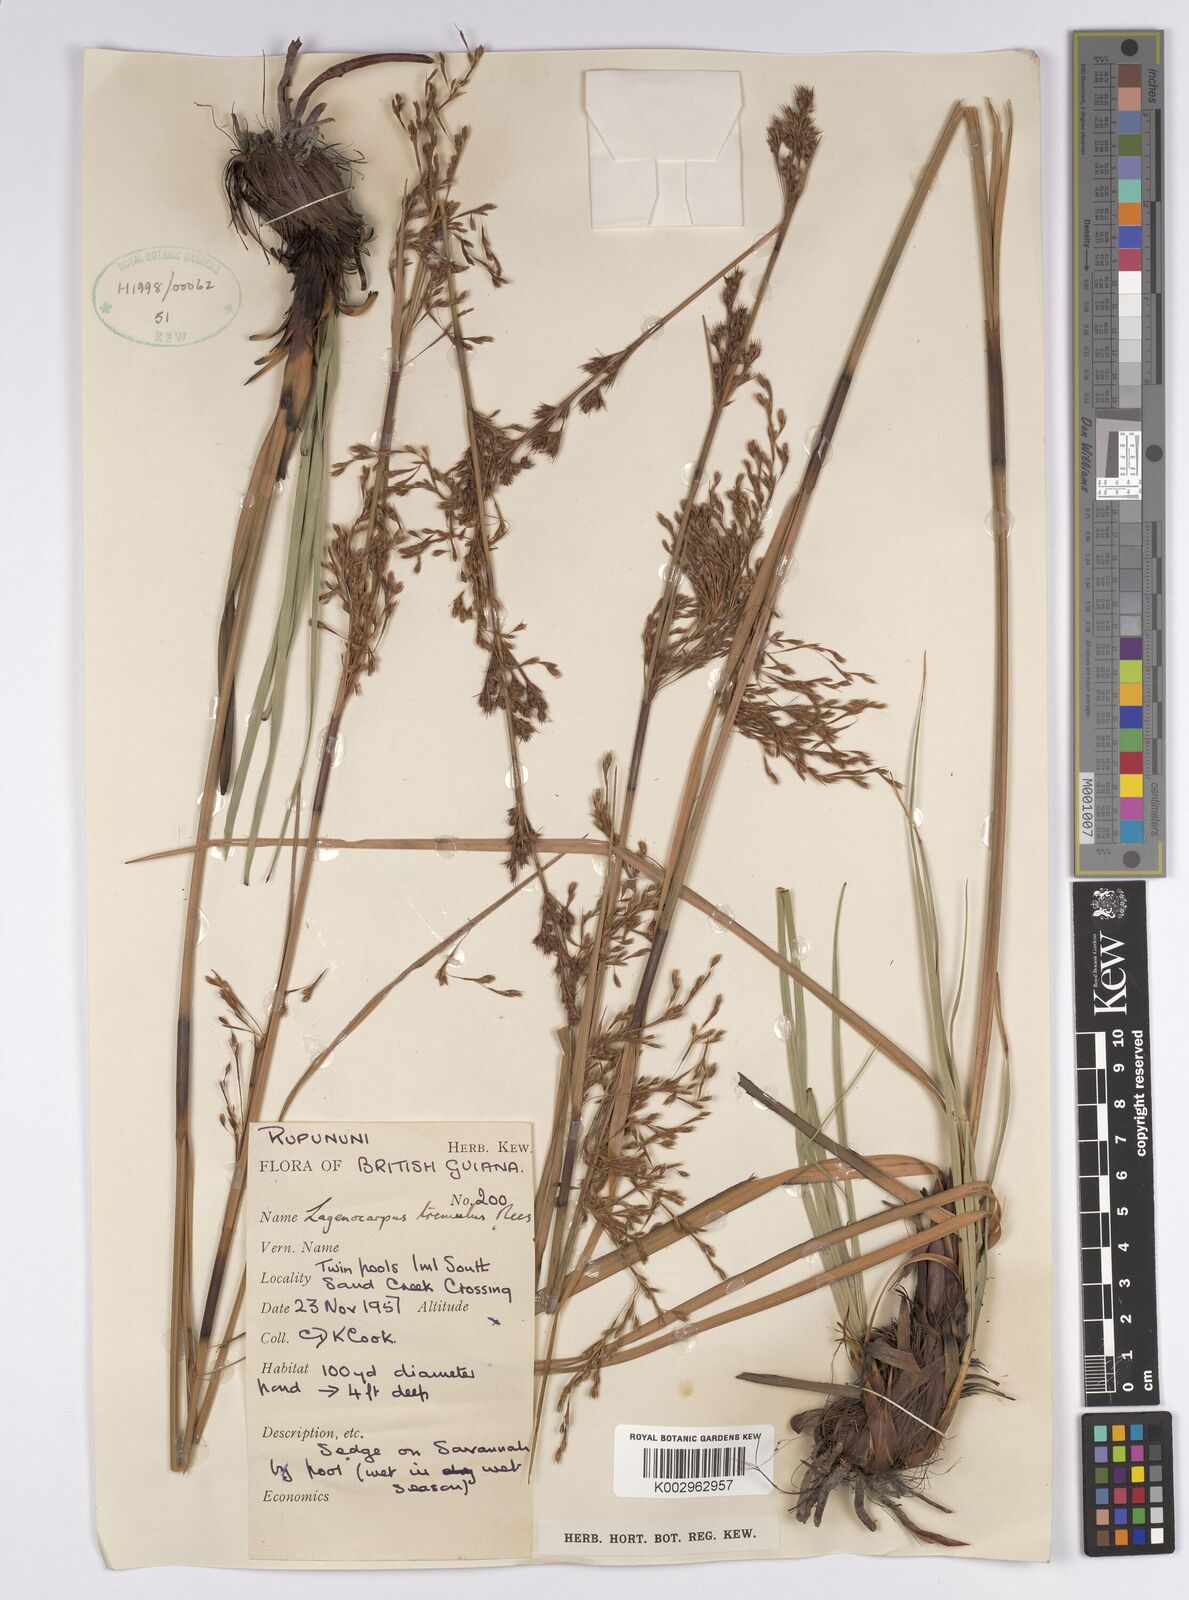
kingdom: Plantae
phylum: Tracheophyta
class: Liliopsida
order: Poales
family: Cyperaceae
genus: Lagenocarpus
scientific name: Lagenocarpus rigidus
